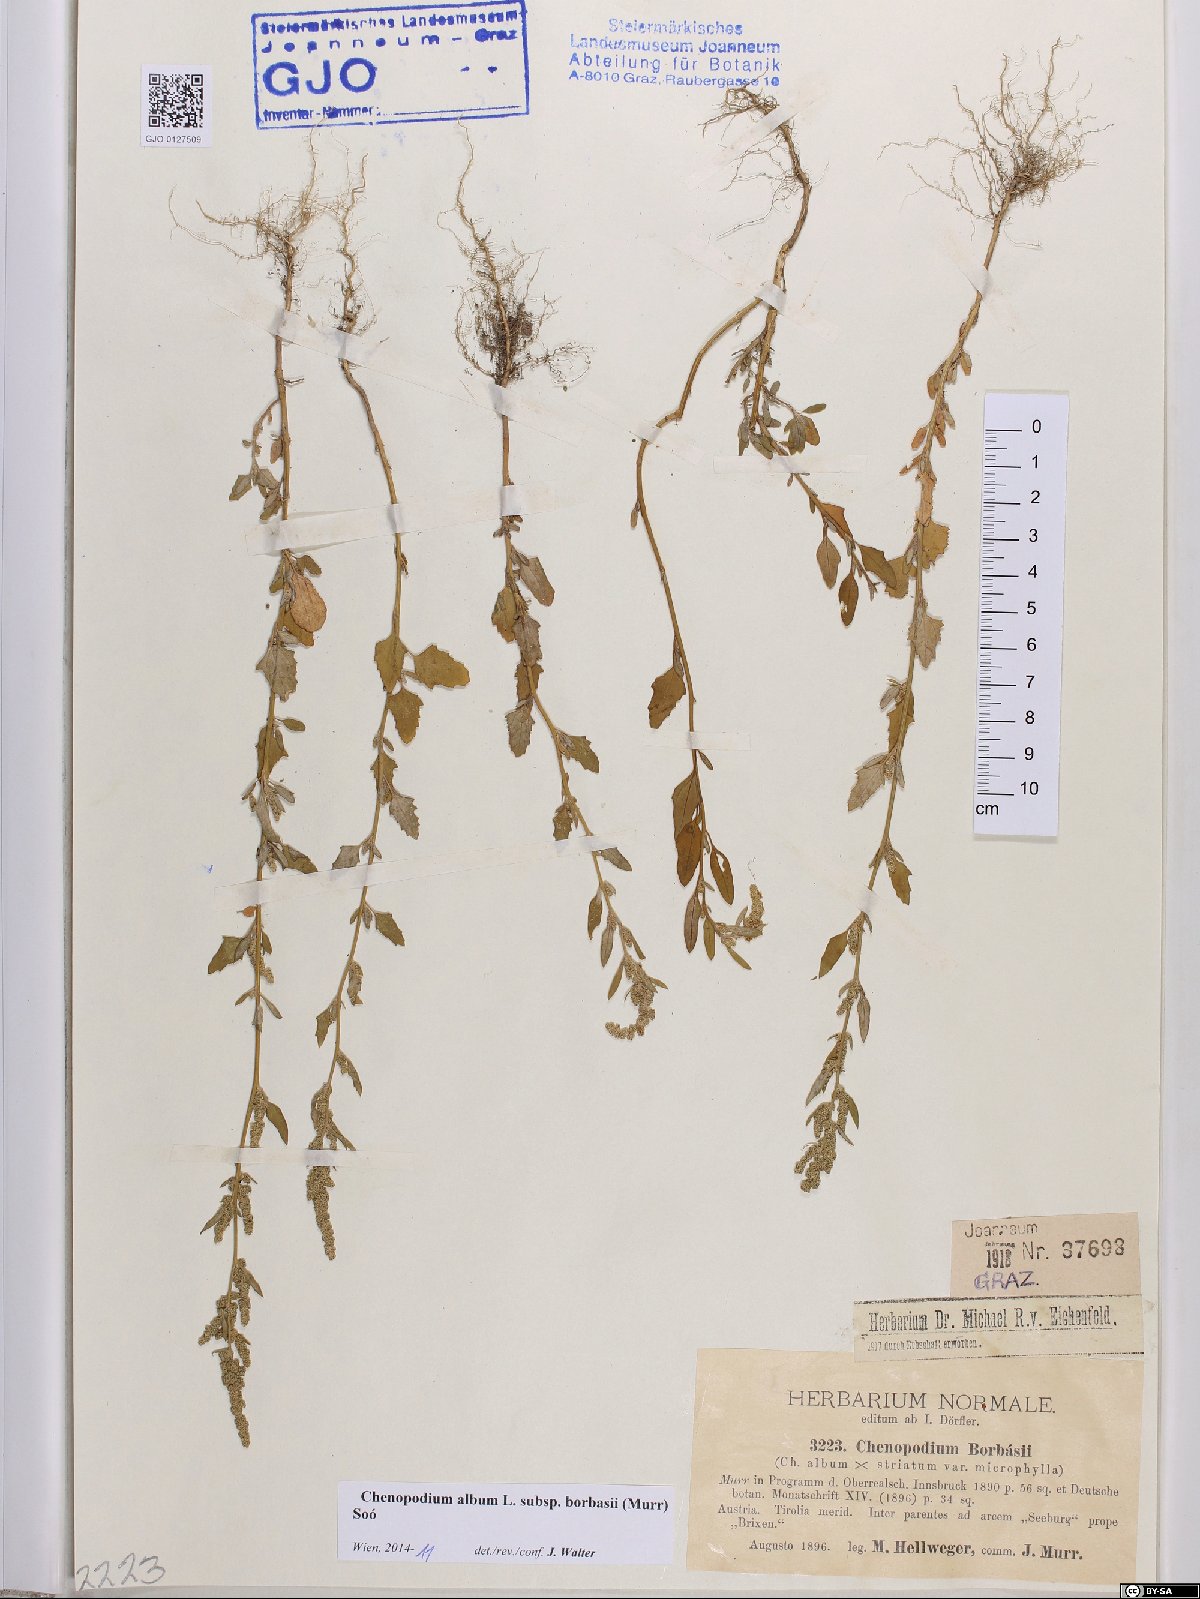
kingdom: Plantae
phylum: Tracheophyta
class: Magnoliopsida
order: Caryophyllales
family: Amaranthaceae
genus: Chenopodium
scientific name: Chenopodium borbasii
